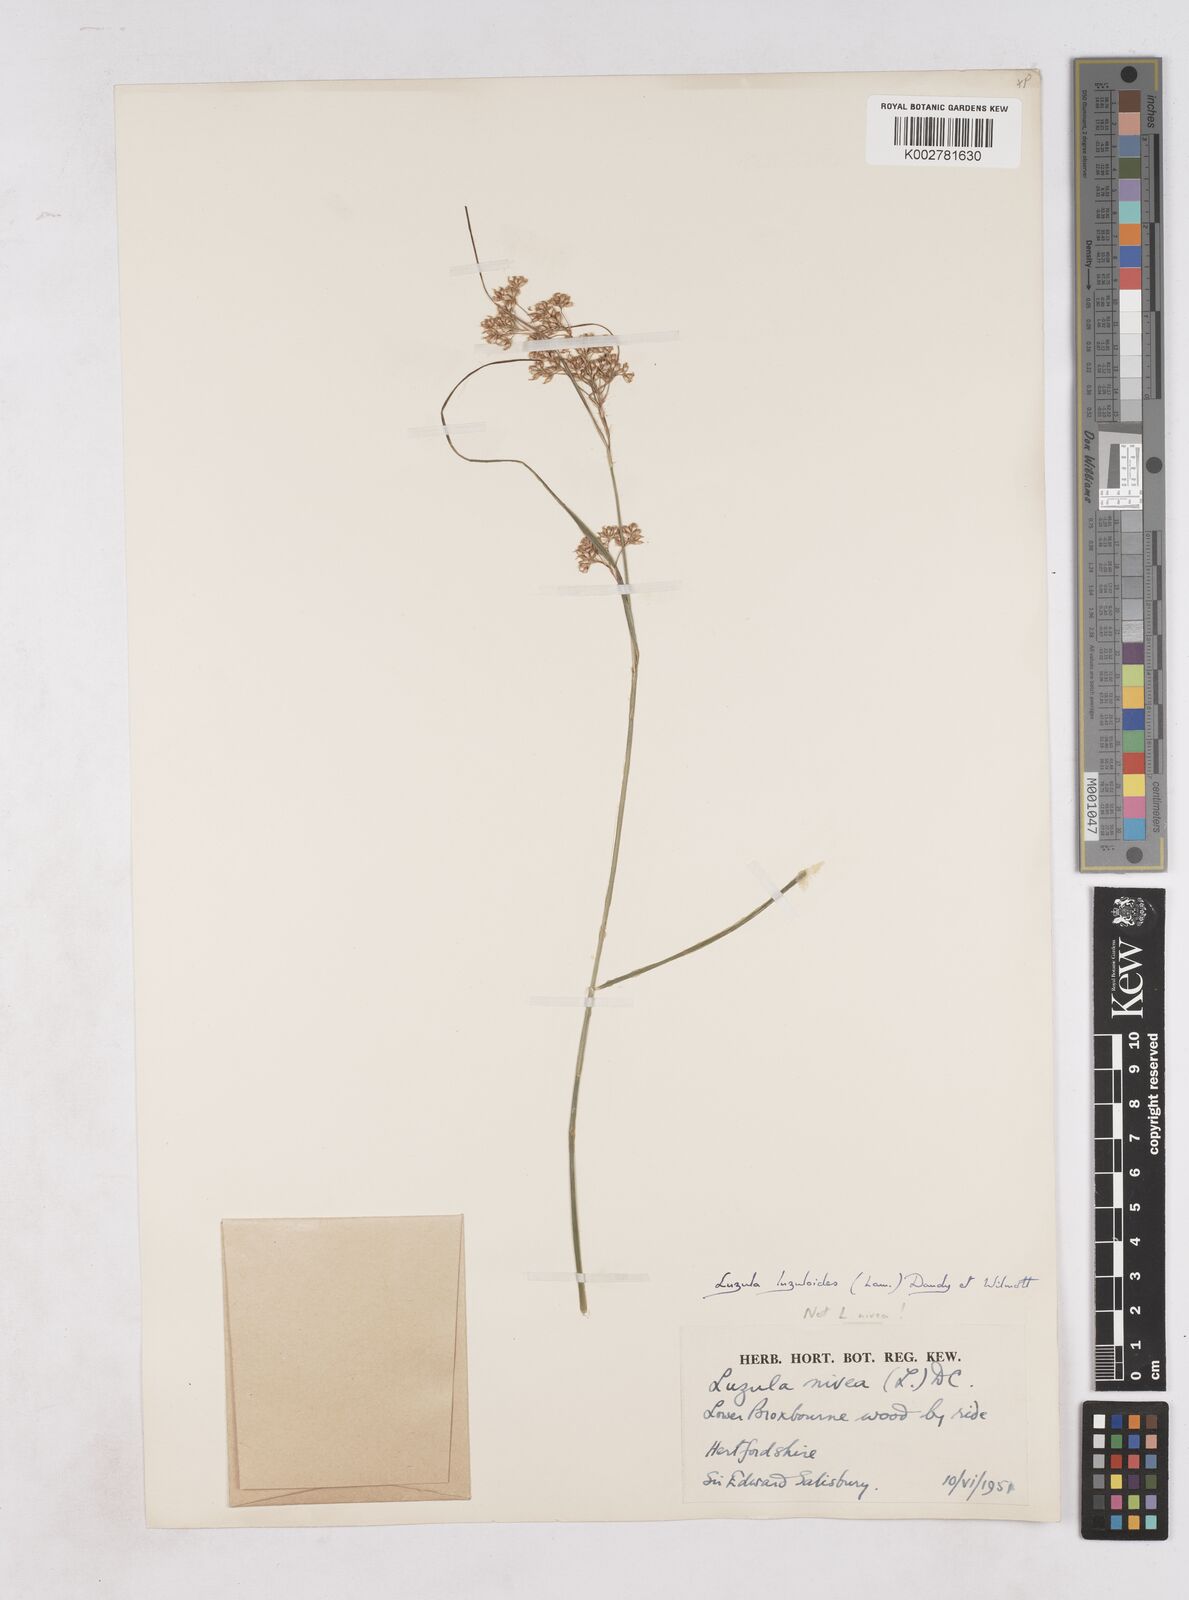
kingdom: Plantae
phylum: Tracheophyta
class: Liliopsida
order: Poales
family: Juncaceae
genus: Luzula
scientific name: Luzula luzuloides
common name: White wood-rush
